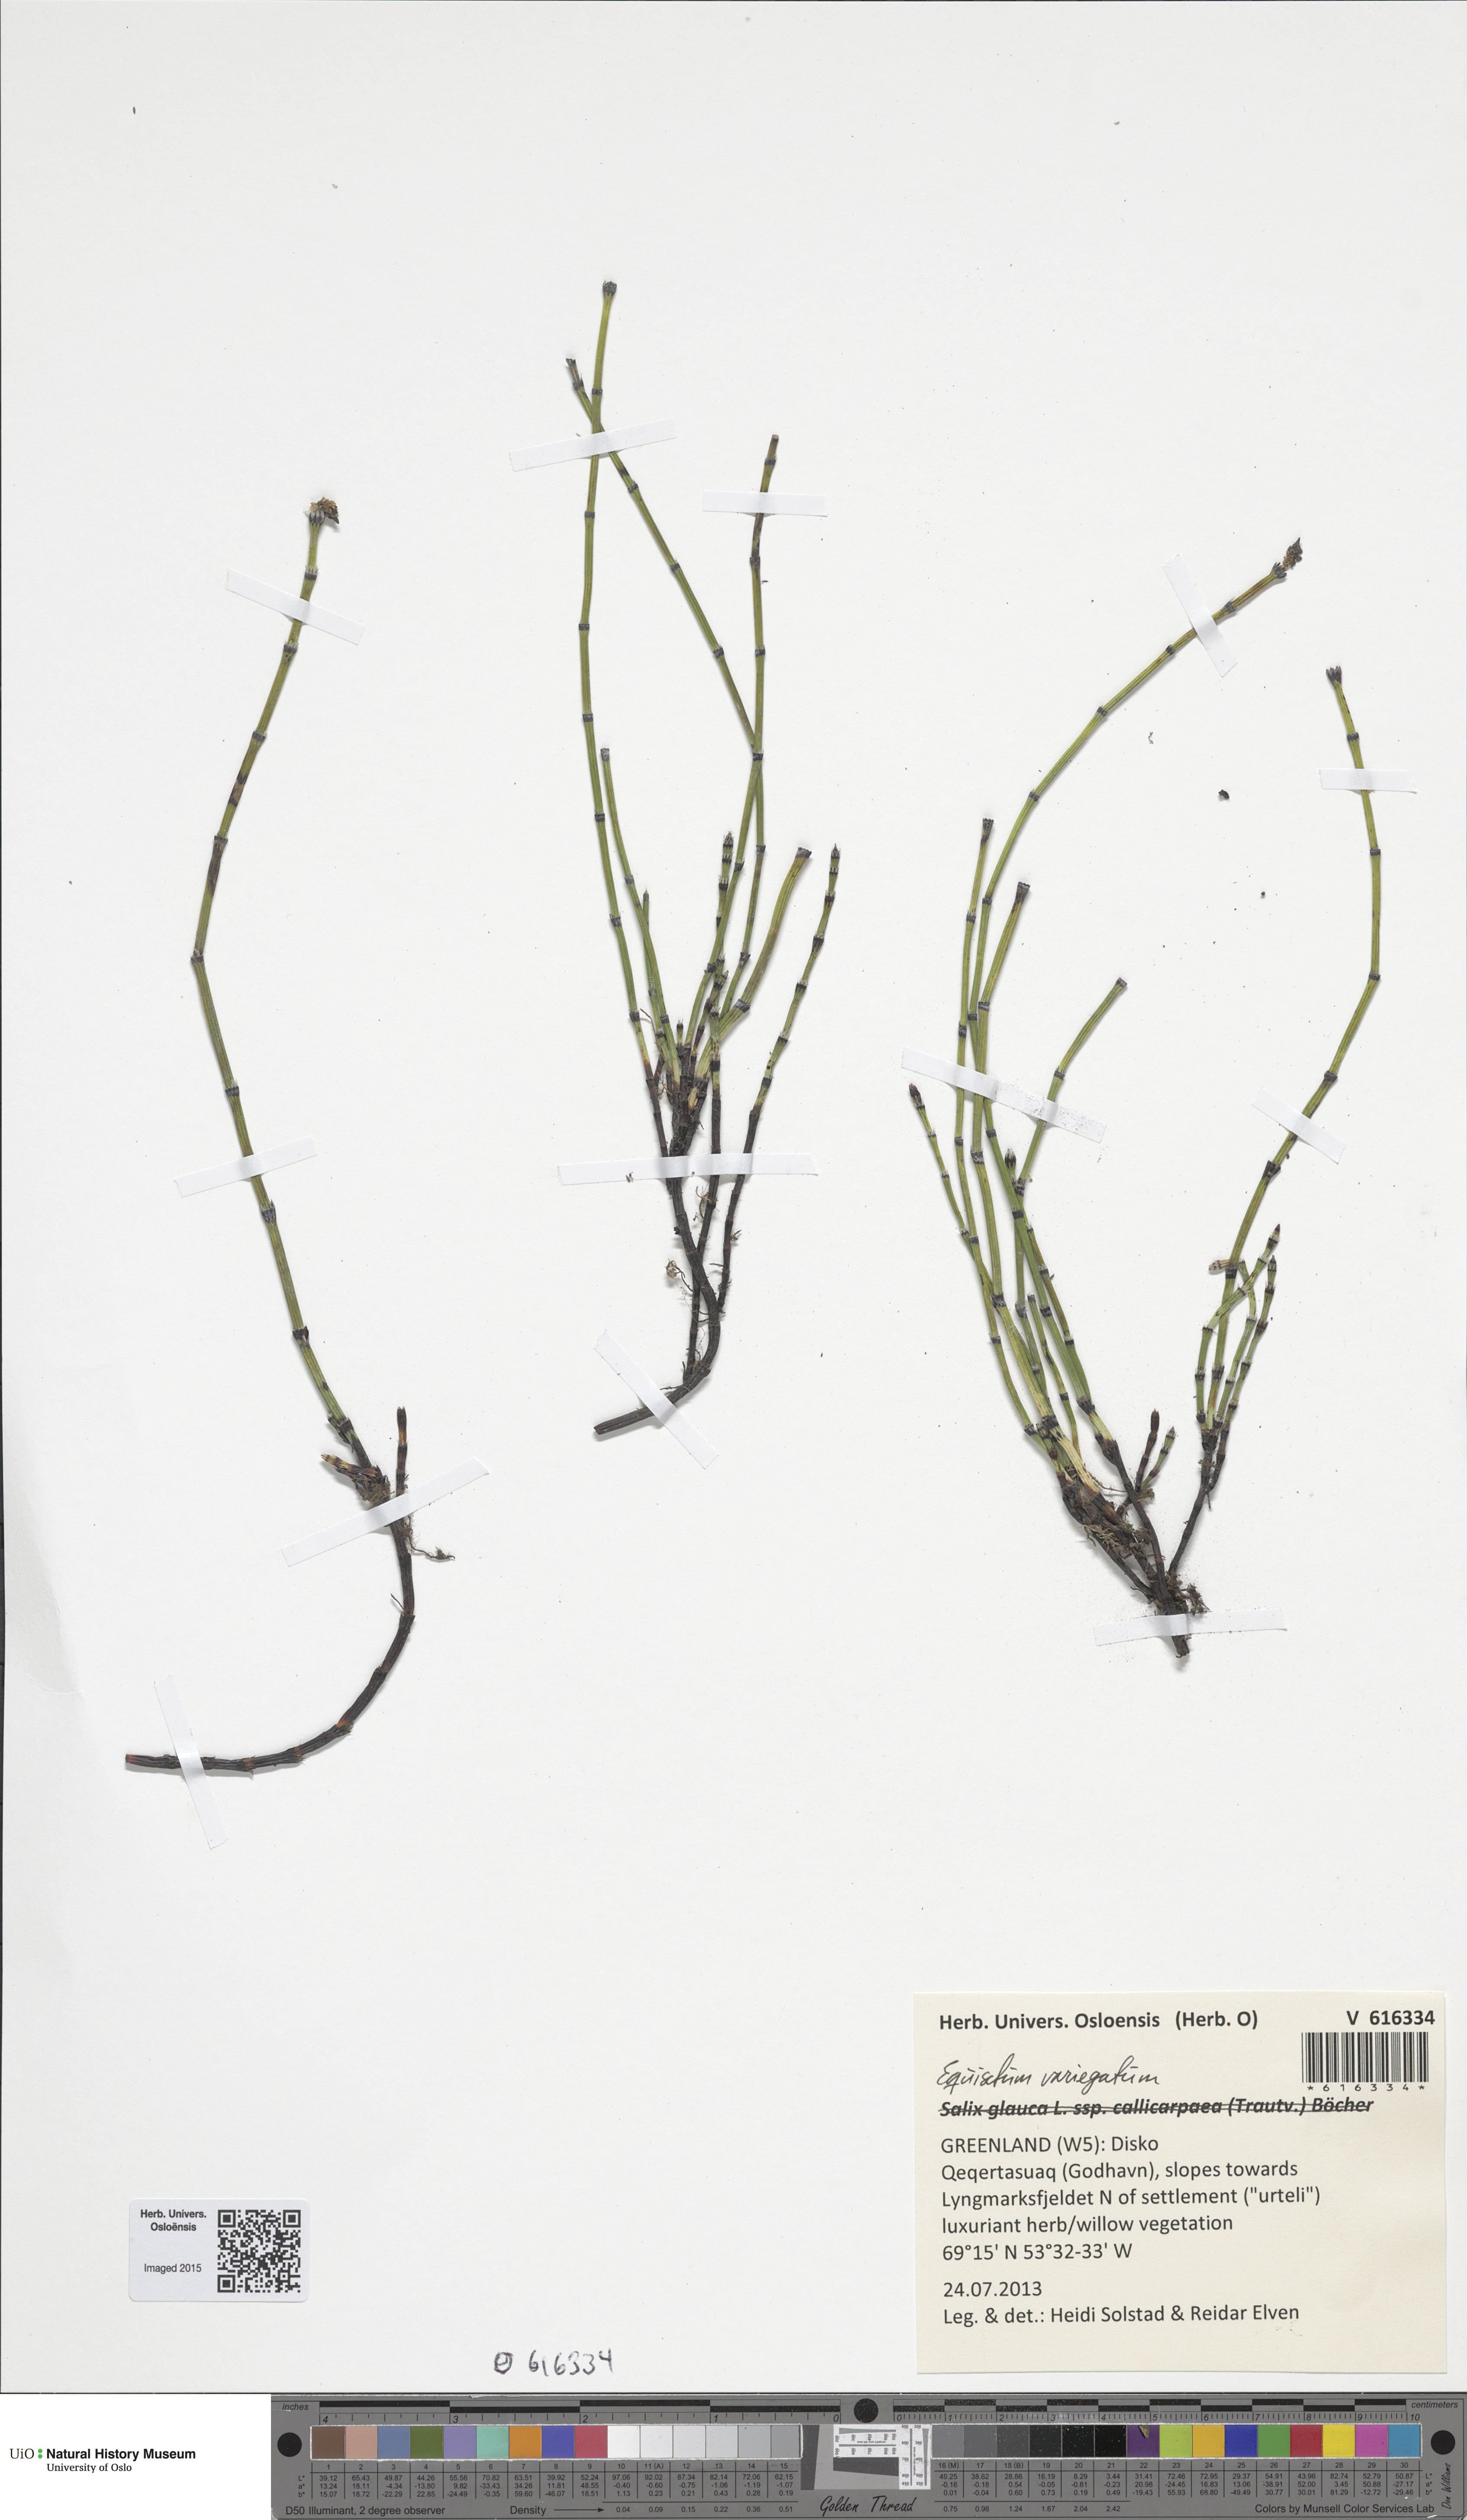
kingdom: Plantae
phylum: Tracheophyta
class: Polypodiopsida
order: Equisetales
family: Equisetaceae
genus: Equisetum
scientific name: Equisetum variegatum
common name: Variegated horsetail
